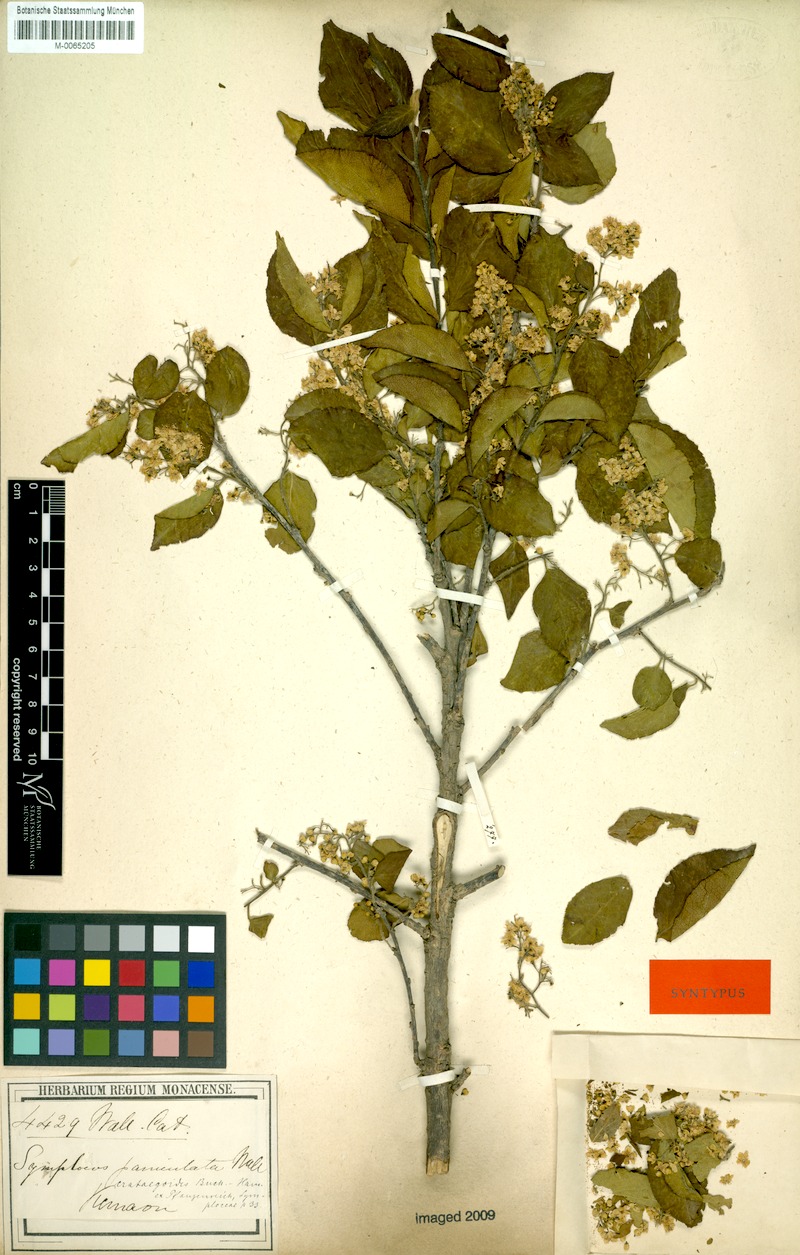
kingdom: Plantae
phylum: Tracheophyta
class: Magnoliopsida
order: Ericales
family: Symplocaceae
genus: Symplocos
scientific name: Symplocos paniculata
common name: Sapphire-berry
